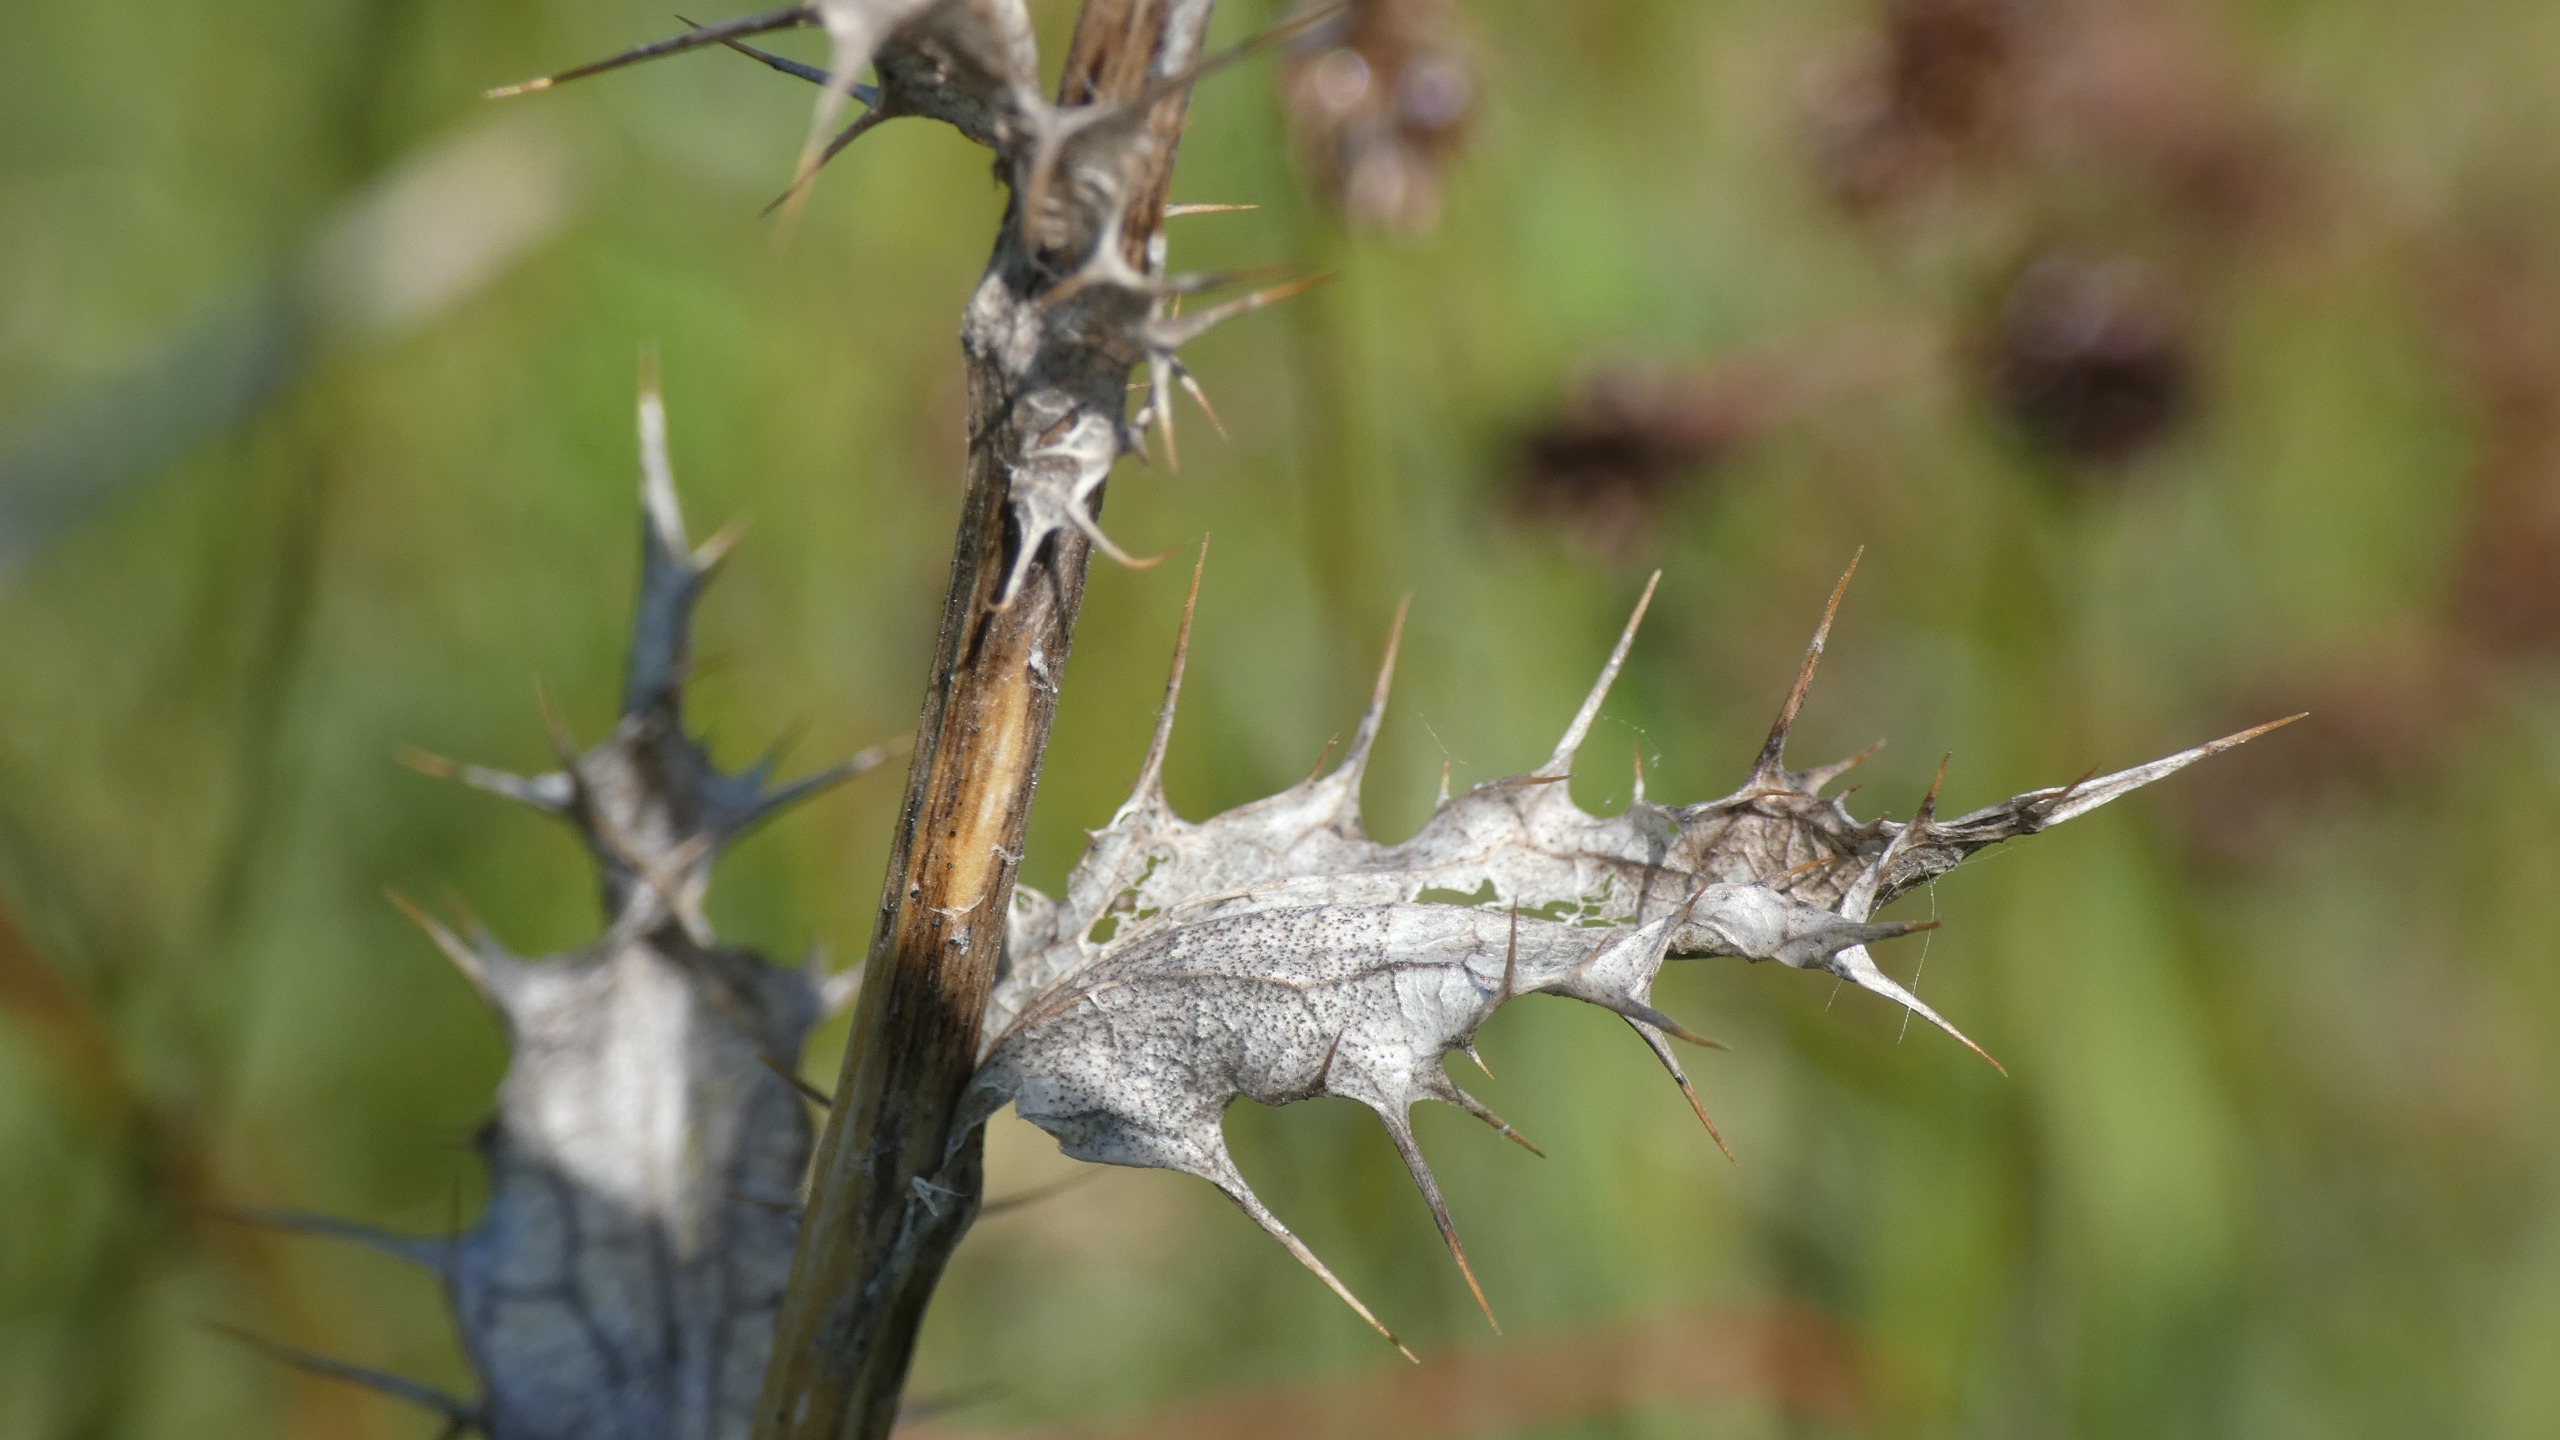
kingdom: Plantae
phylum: Tracheophyta
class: Magnoliopsida
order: Asterales
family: Asteraceae
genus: Carlina
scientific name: Carlina vulgaris
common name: Bakketidsel
